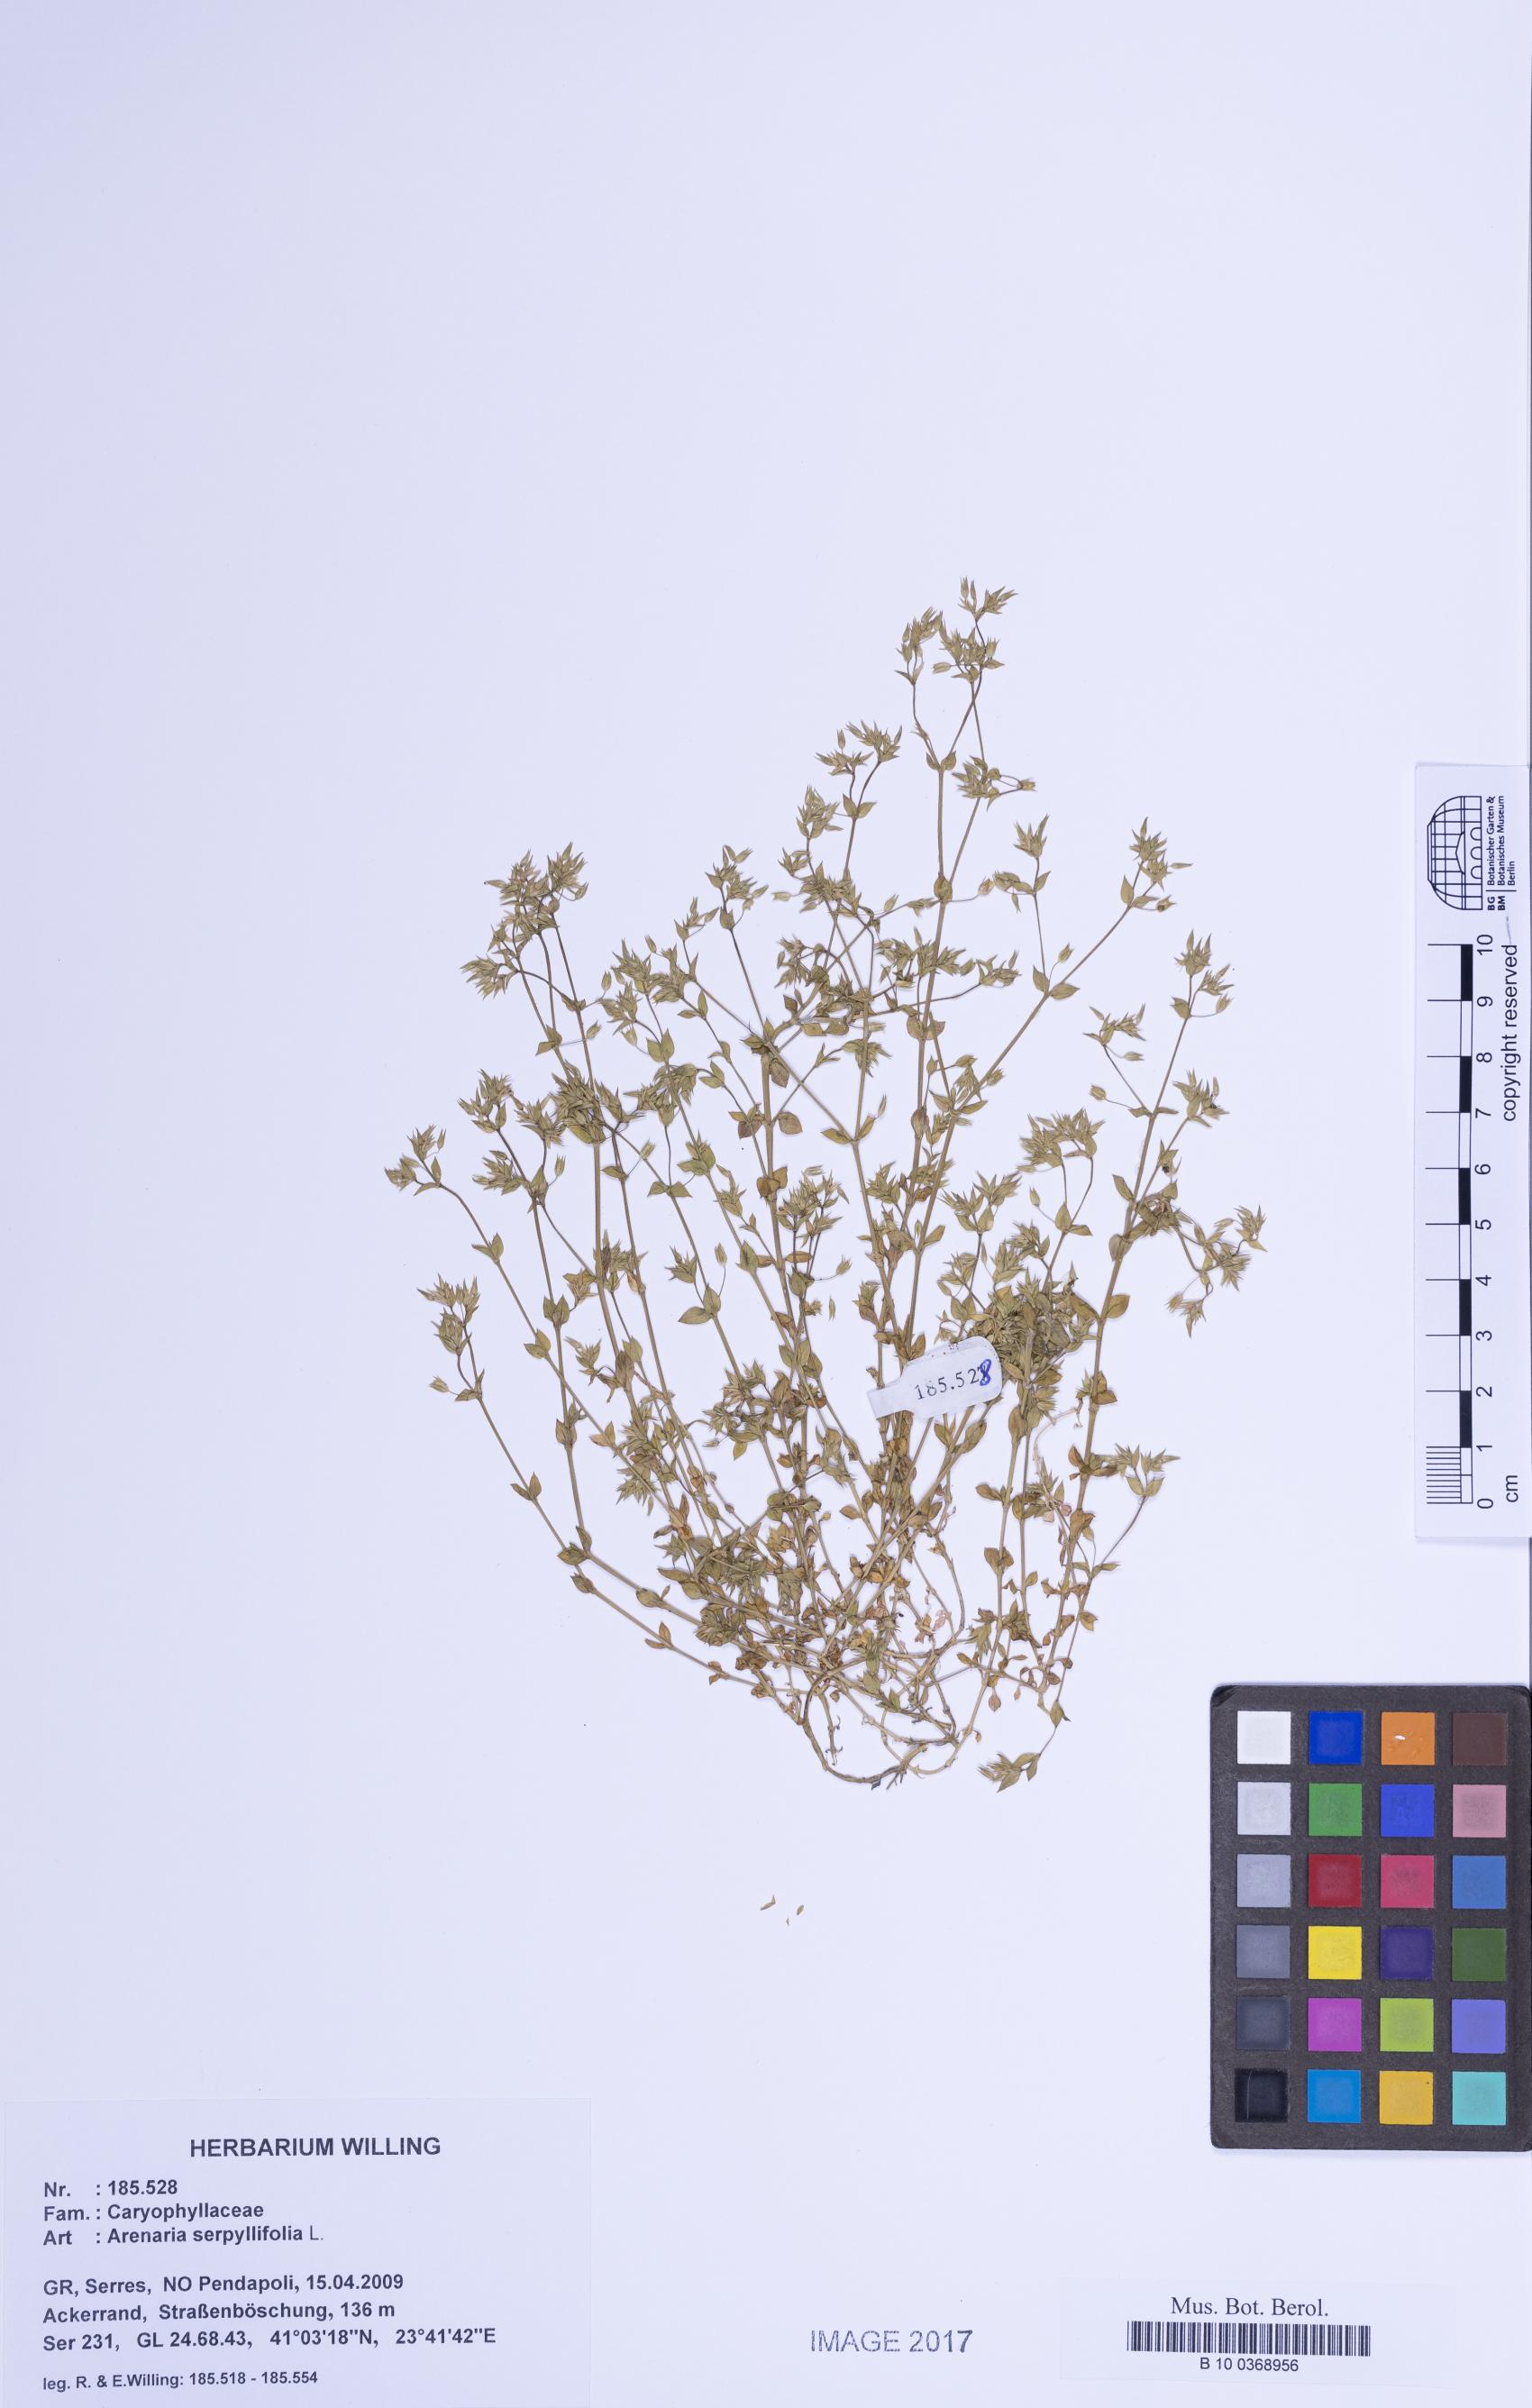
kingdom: Plantae
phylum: Tracheophyta
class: Magnoliopsida
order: Caryophyllales
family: Caryophyllaceae
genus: Arenaria
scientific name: Arenaria serpyllifolia
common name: Thyme-leaved sandwort
